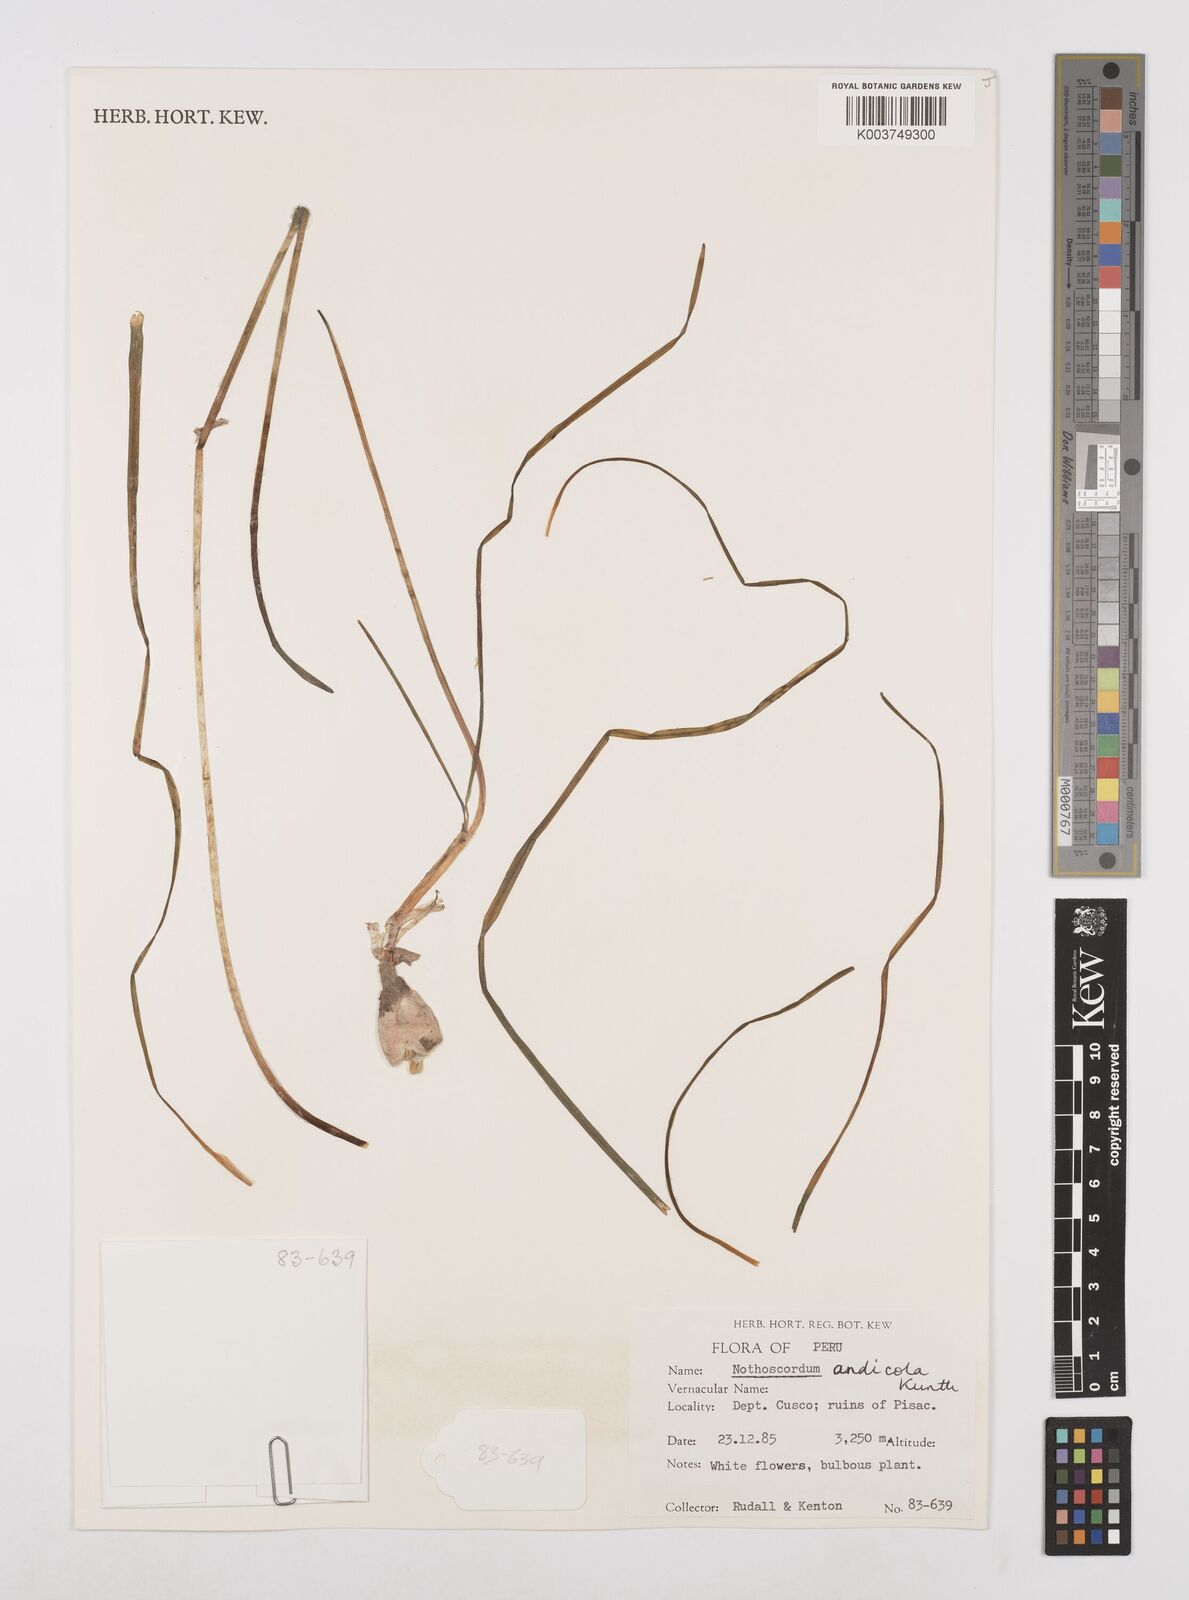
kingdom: Plantae
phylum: Tracheophyta
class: Liliopsida
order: Asparagales
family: Amaryllidaceae
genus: Nothoscordum
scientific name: Nothoscordum andicola
